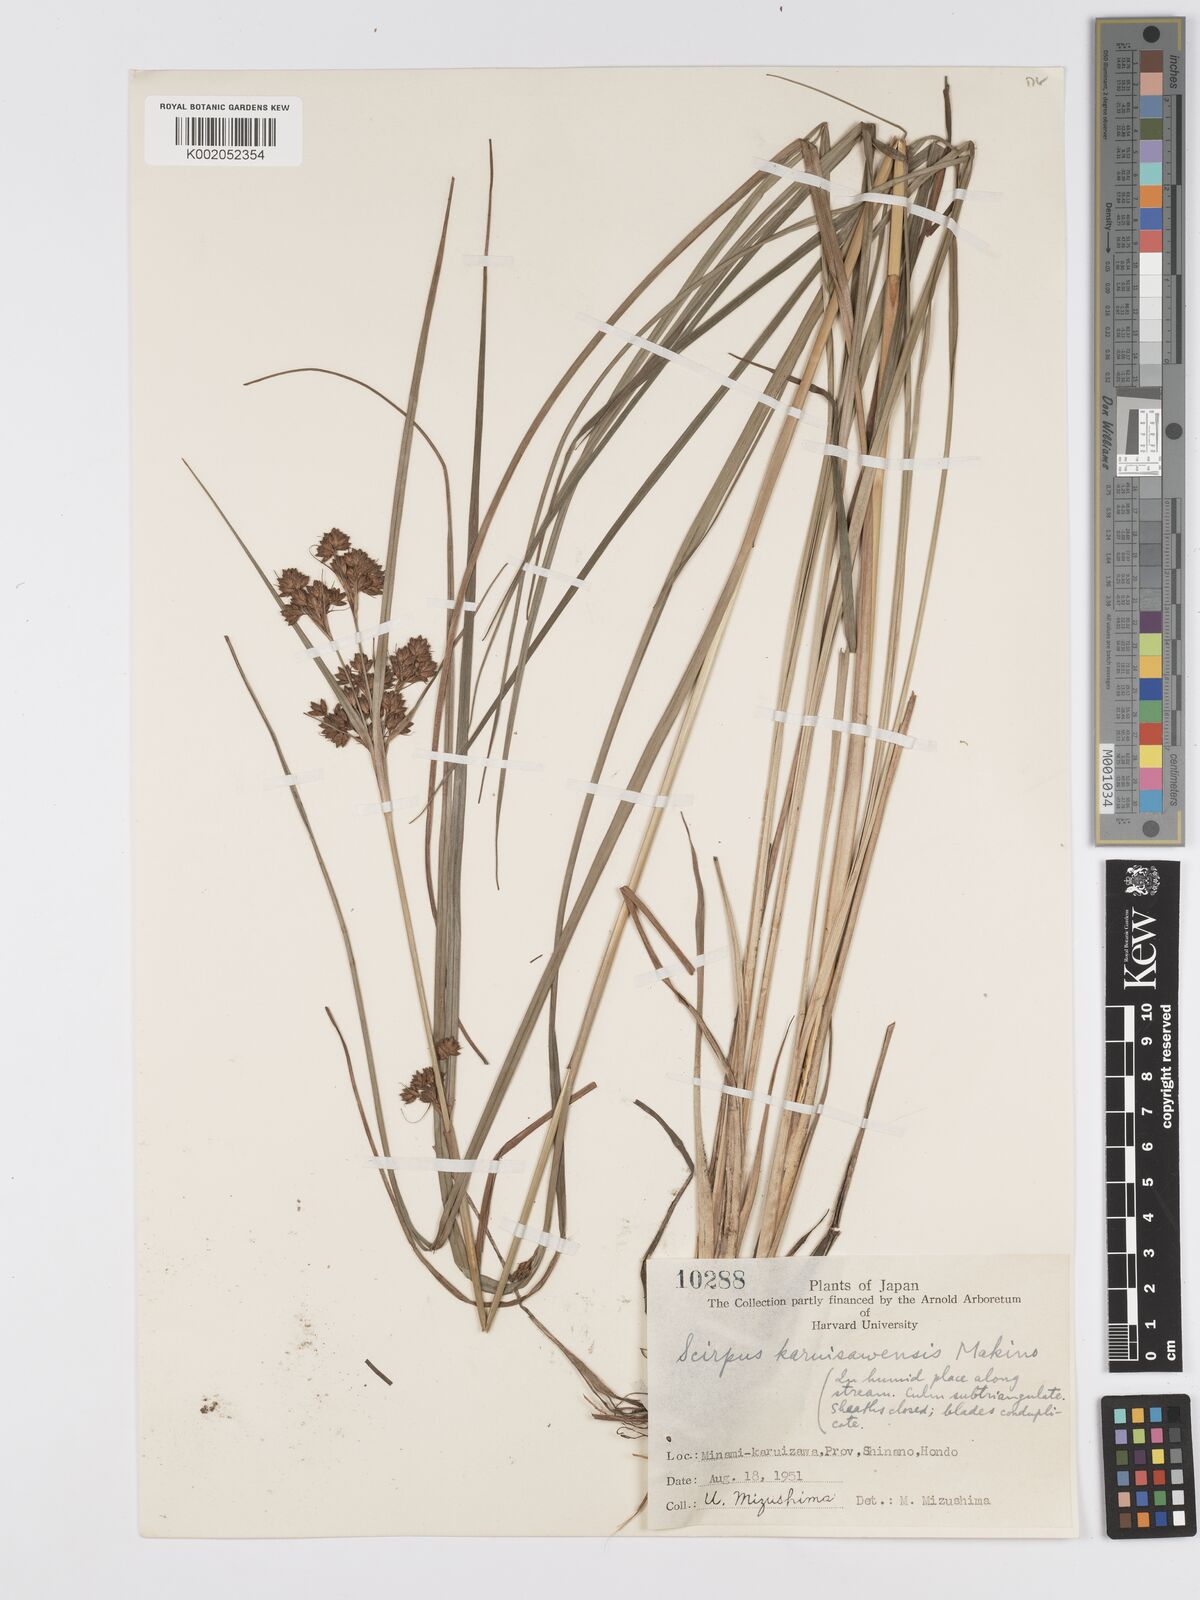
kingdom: Plantae
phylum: Tracheophyta
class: Liliopsida
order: Poales
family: Cyperaceae
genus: Scirpus
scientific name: Scirpus
